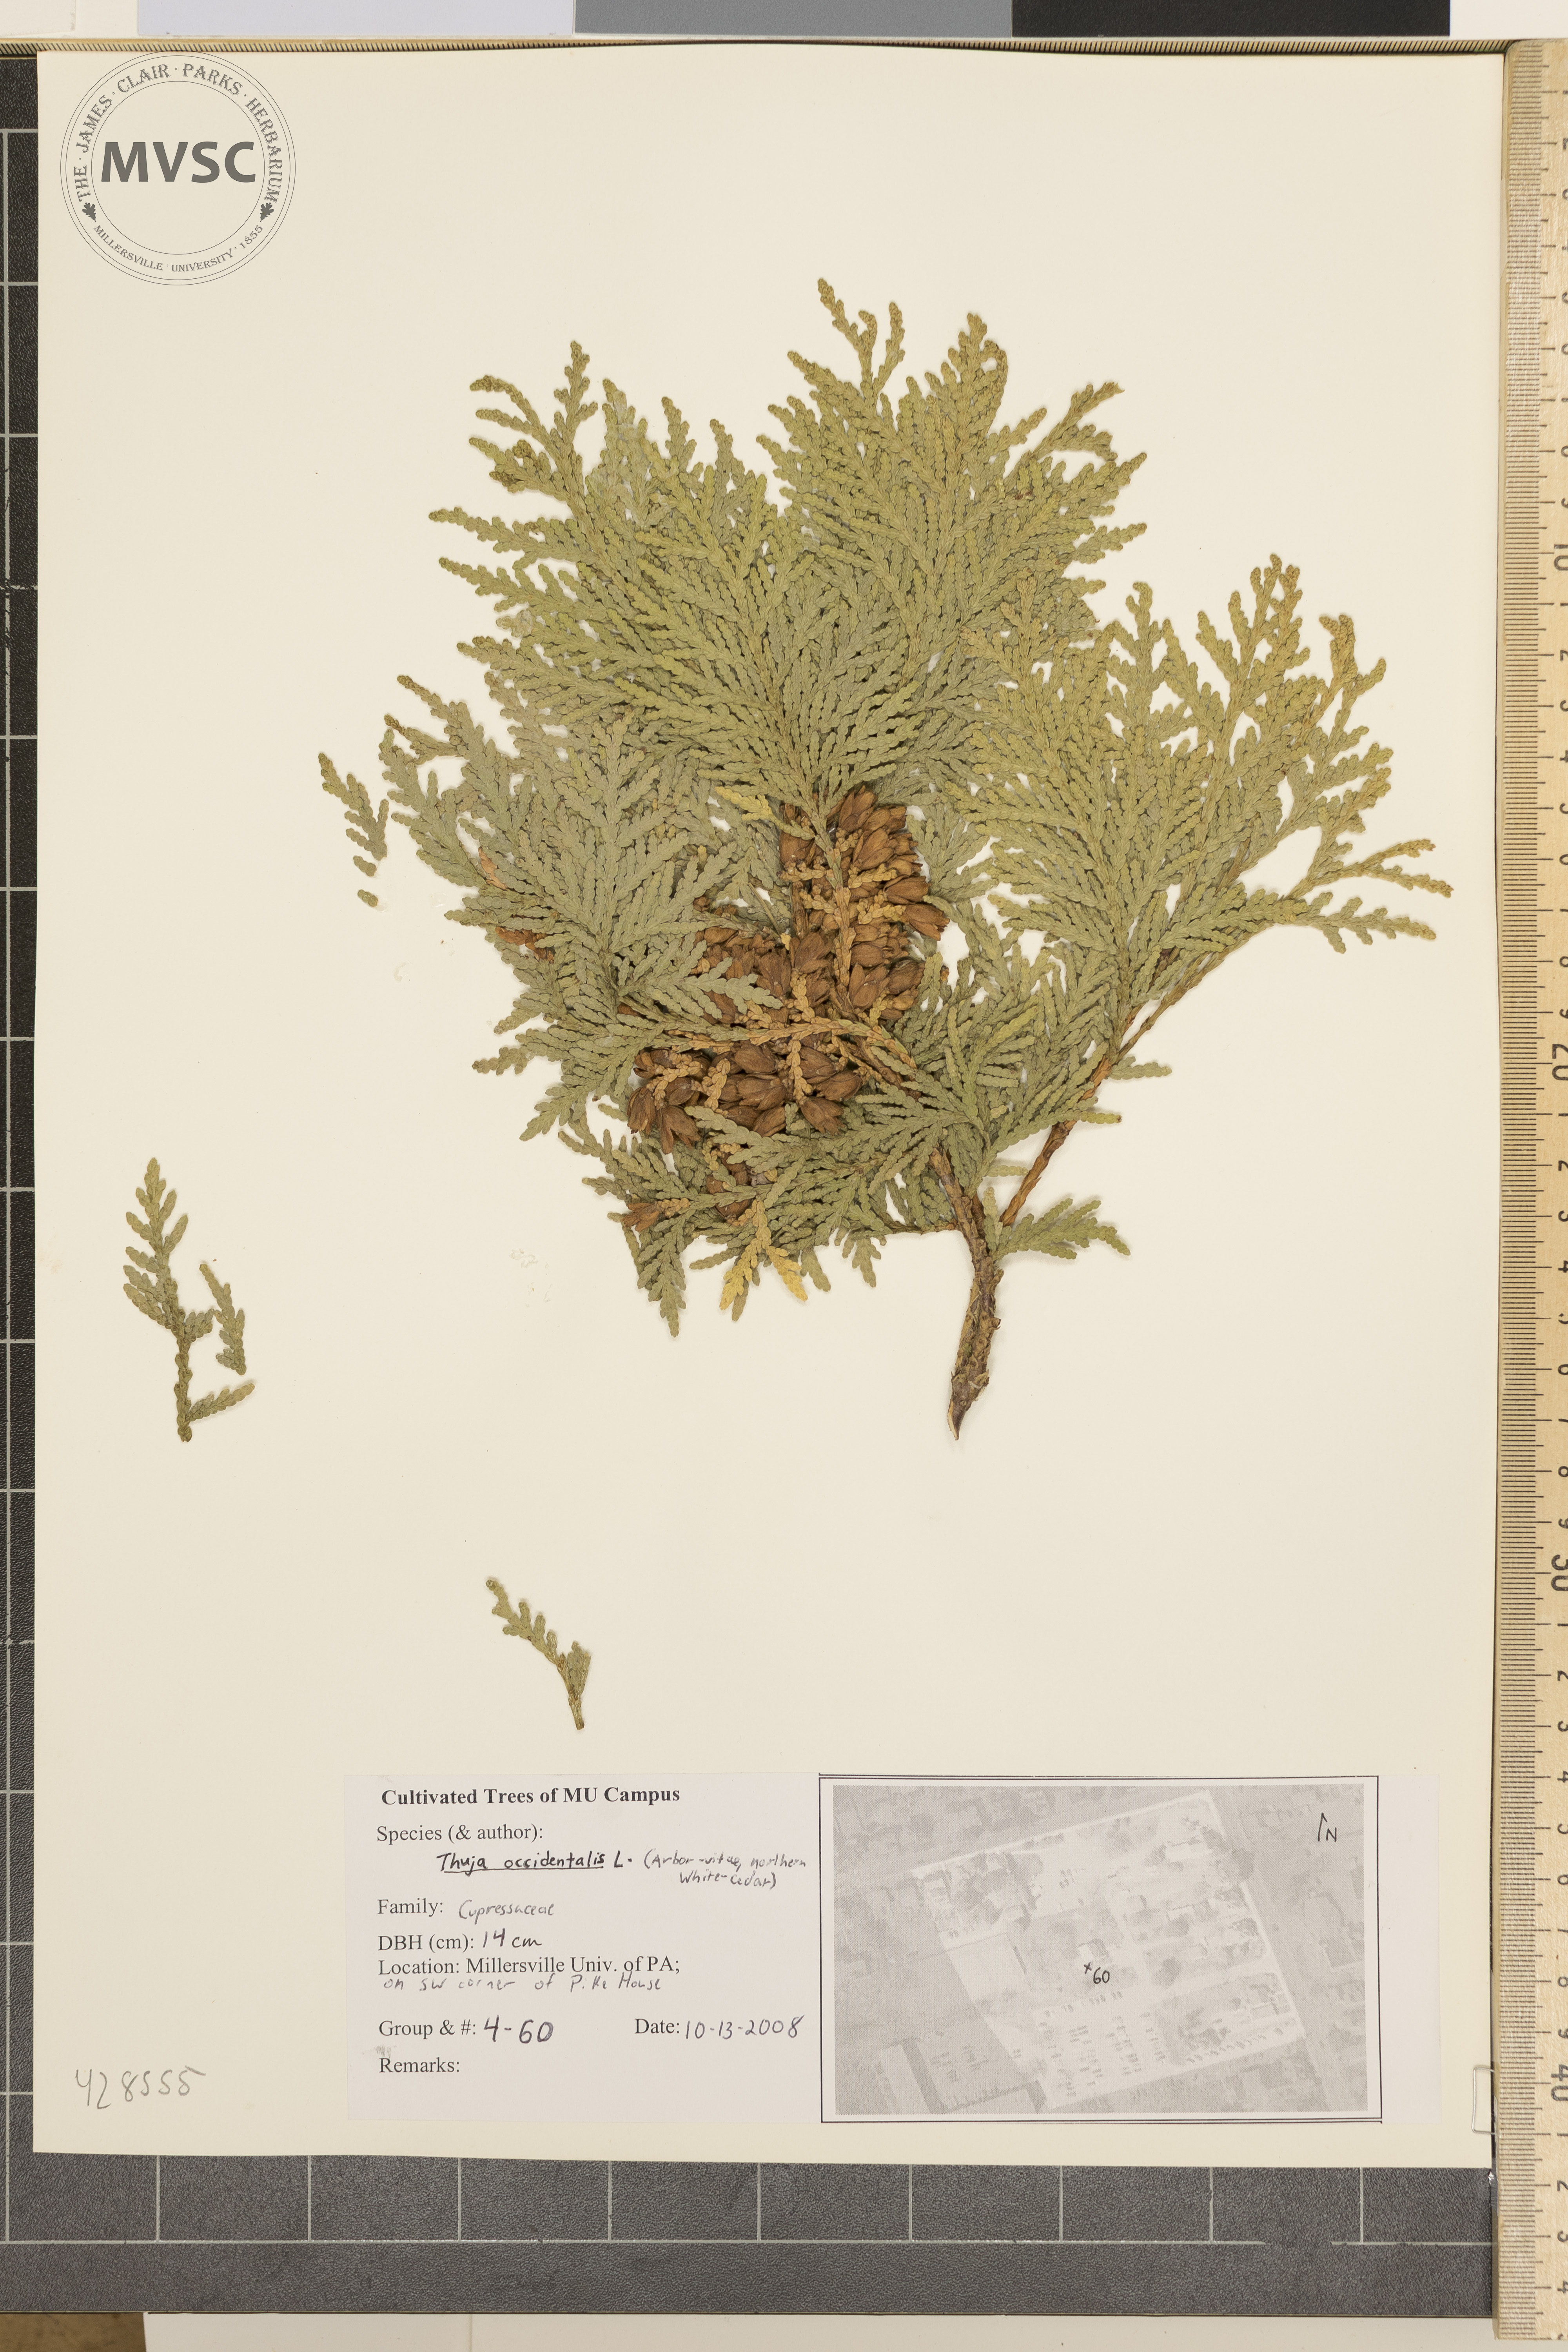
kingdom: Plantae
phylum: Tracheophyta
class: Pinopsida
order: Pinales
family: Cupressaceae
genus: Thuja
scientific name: Thuja occidentalis
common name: Arborvitae
